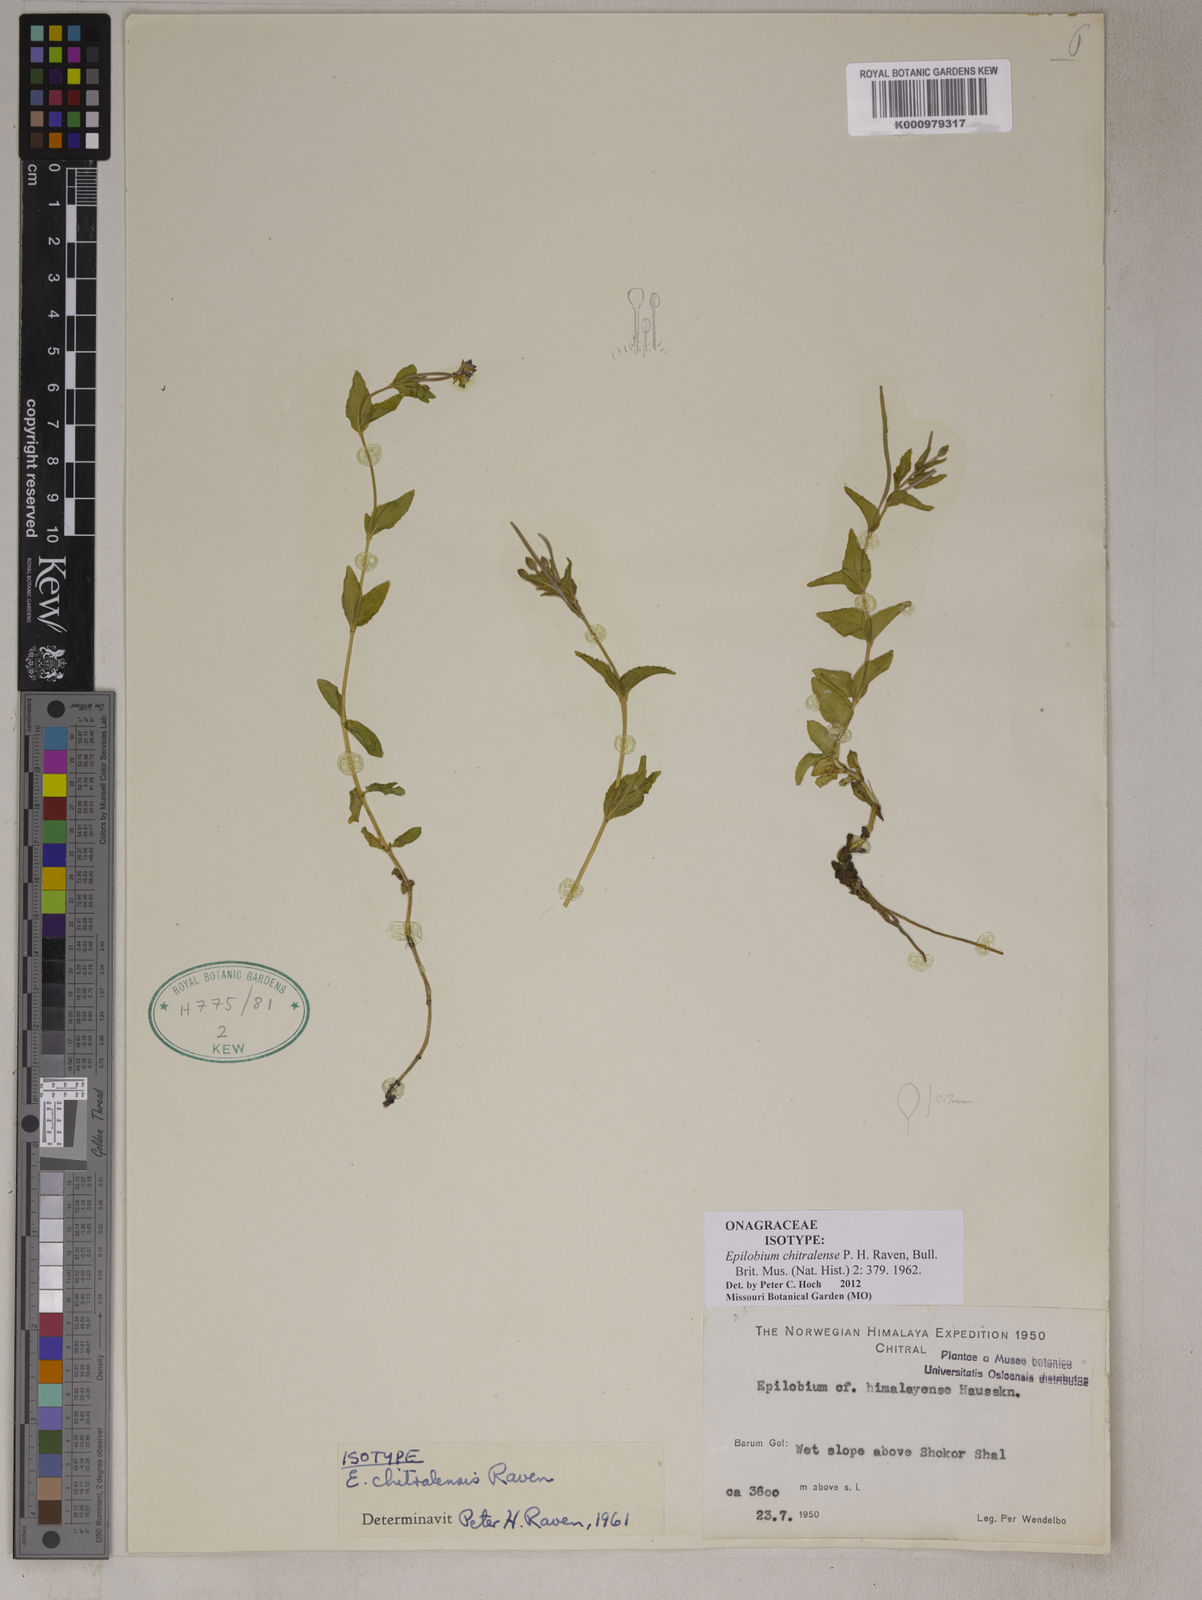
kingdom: Plantae
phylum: Tracheophyta
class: Magnoliopsida
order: Myrtales
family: Onagraceae
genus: Epilobium
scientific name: Epilobium chitralense
